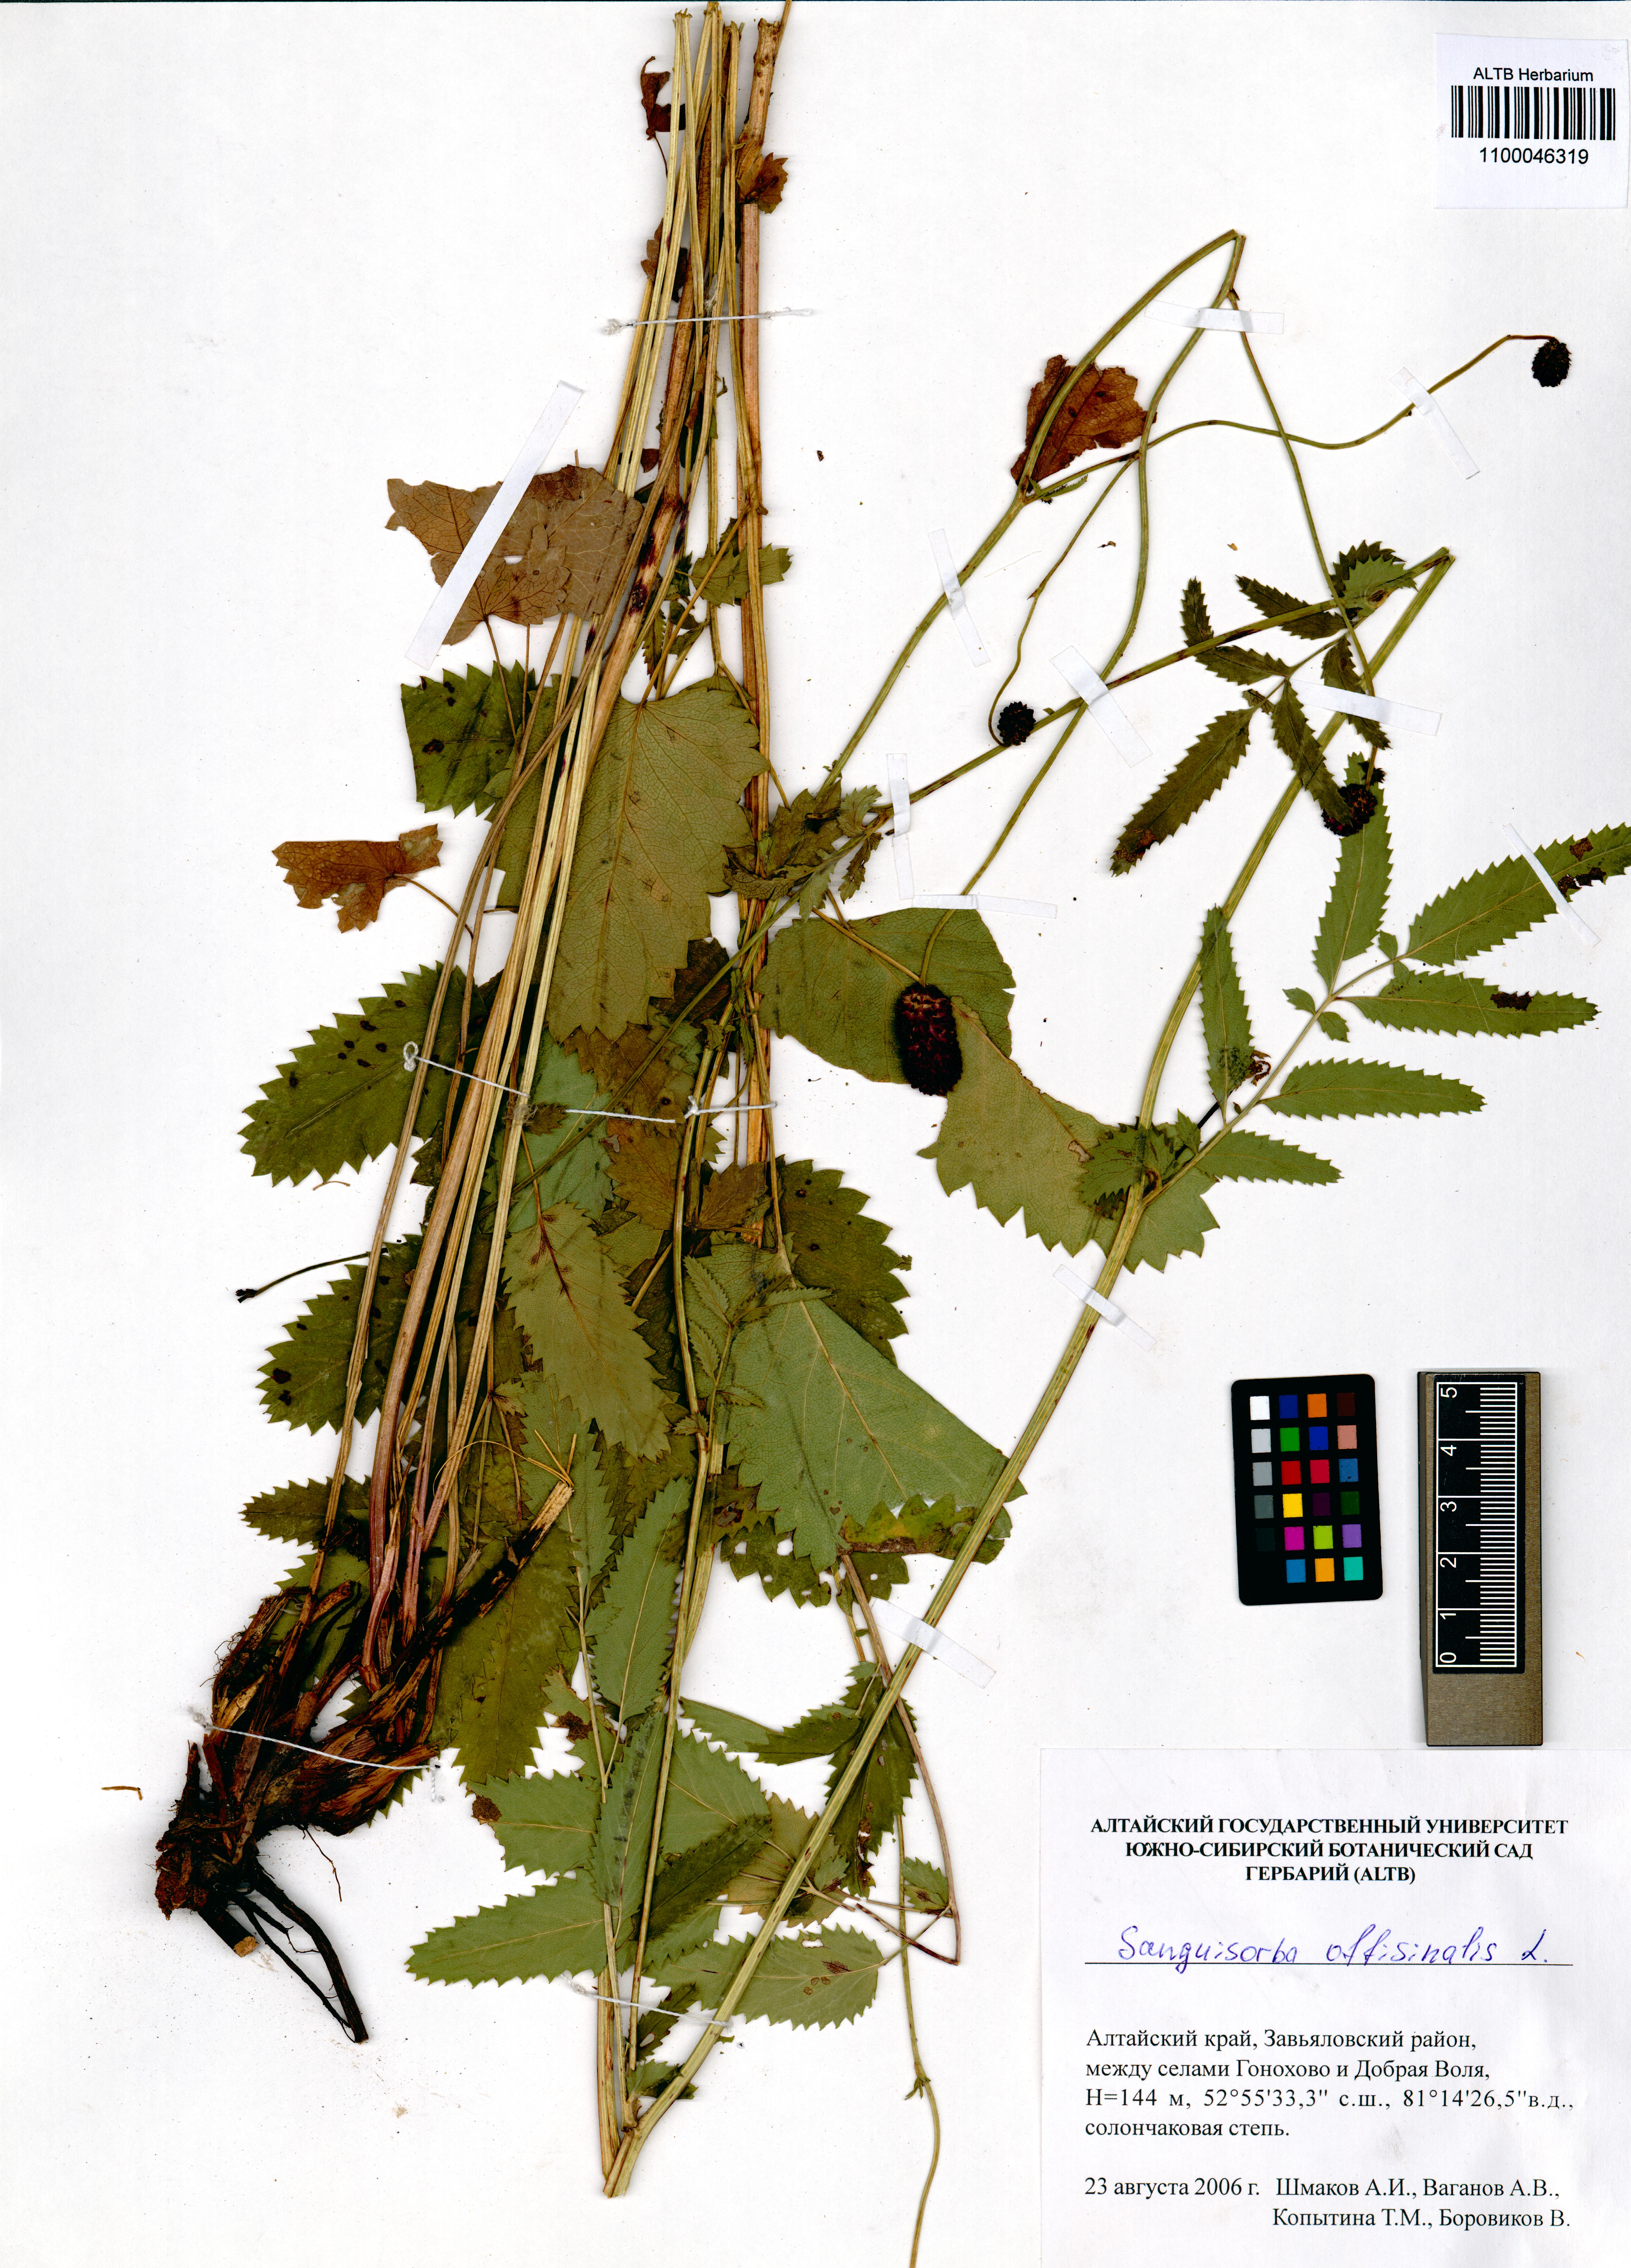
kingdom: Plantae
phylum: Tracheophyta
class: Magnoliopsida
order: Rosales
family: Rosaceae
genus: Sanguisorba
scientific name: Sanguisorba officinalis
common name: Great burnet
